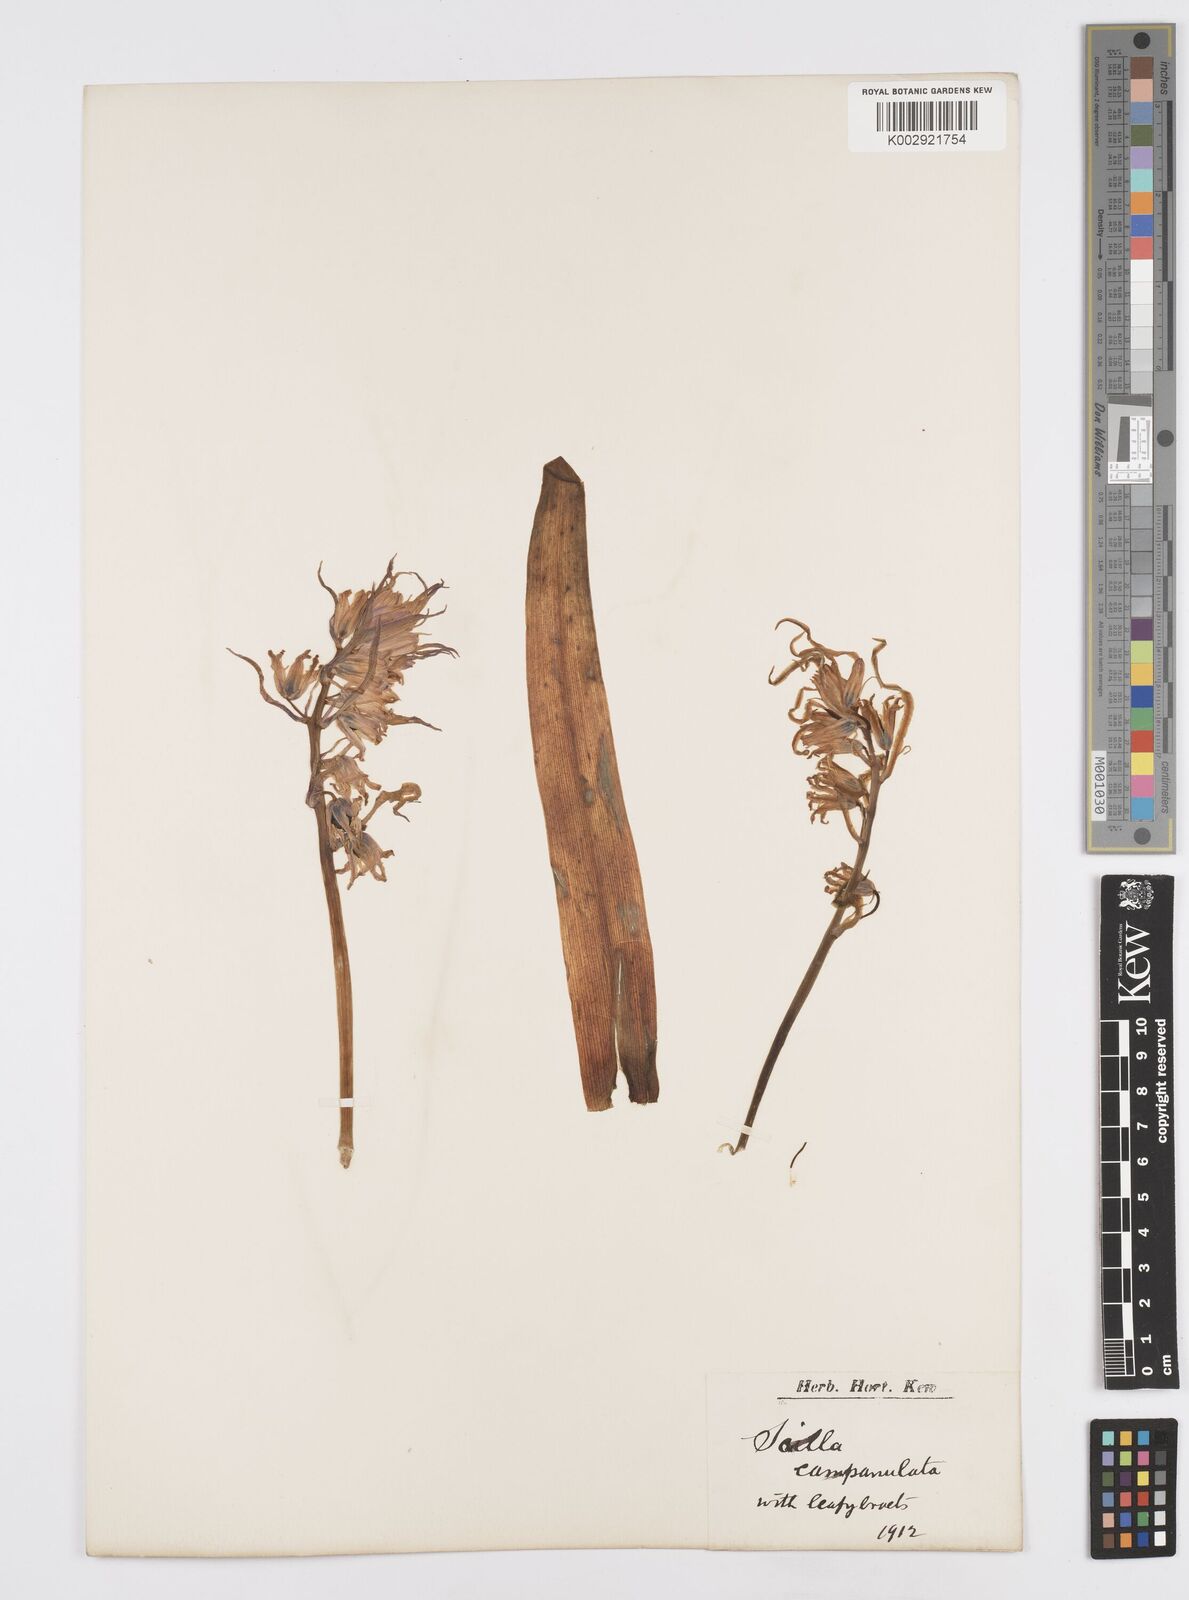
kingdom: Plantae
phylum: Tracheophyta
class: Liliopsida
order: Asparagales
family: Asparagaceae
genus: Hyacinthoides
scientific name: Hyacinthoides hispanica
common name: Spanish bluebell
